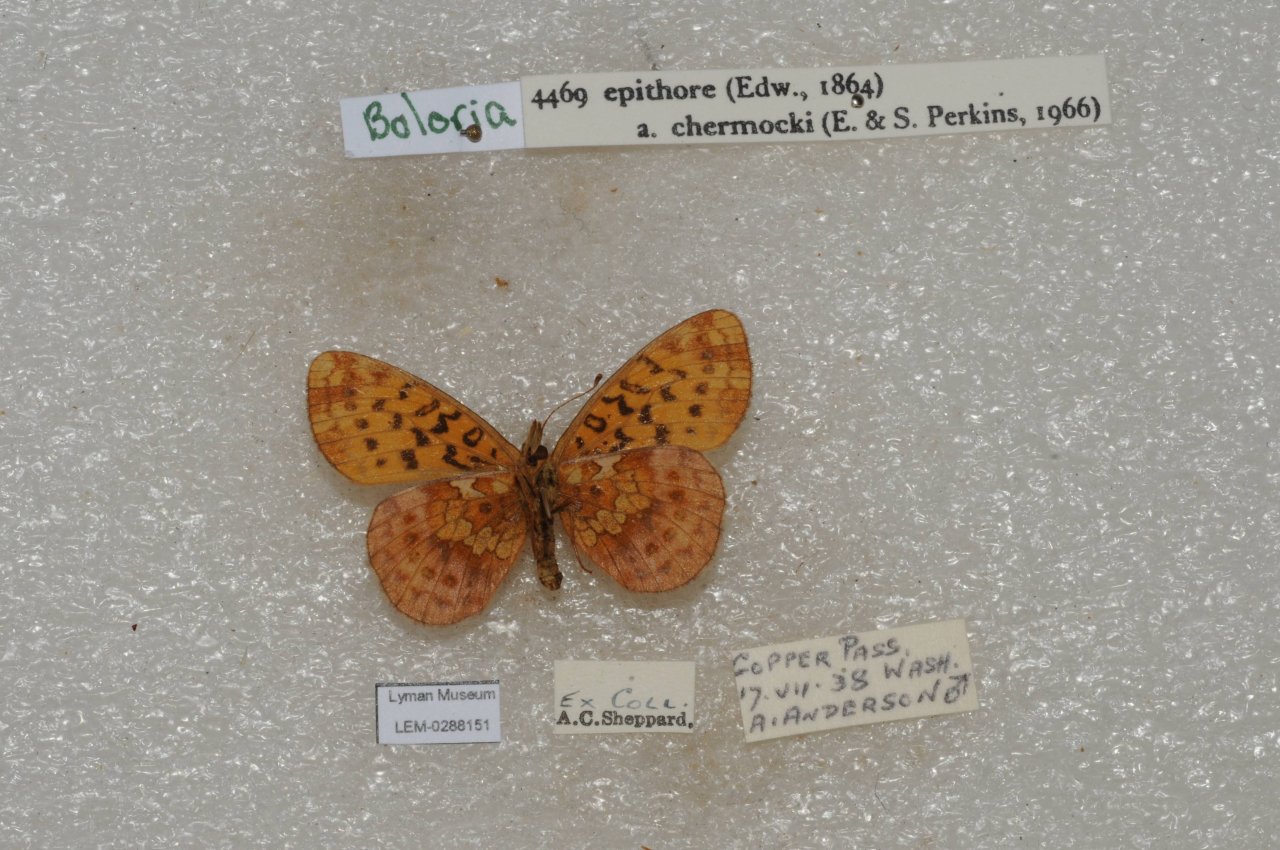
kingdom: Animalia
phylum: Arthropoda
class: Insecta
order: Lepidoptera
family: Nymphalidae
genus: Boloria
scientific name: Boloria epithore
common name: Pacific Fritillary
